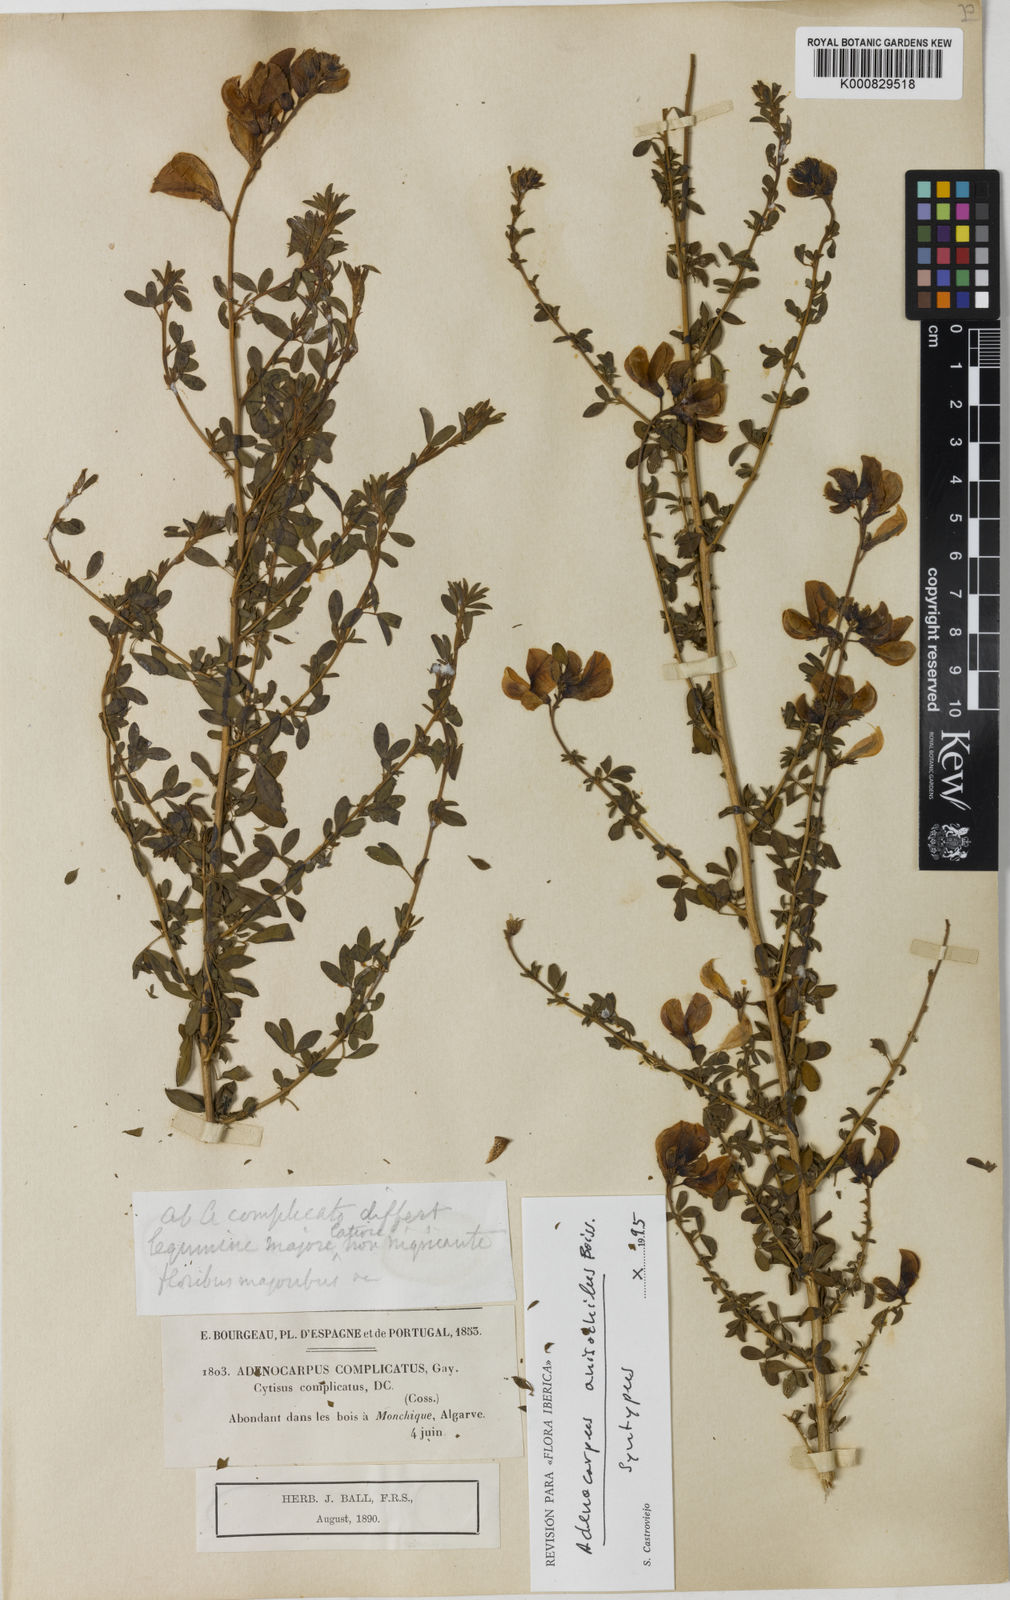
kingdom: Plantae
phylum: Tracheophyta
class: Magnoliopsida
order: Fabales
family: Fabaceae
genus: Adenocarpus
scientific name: Adenocarpus hispanicus
